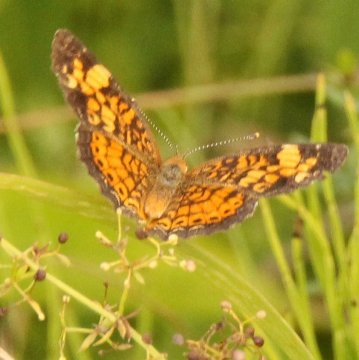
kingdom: Animalia
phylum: Arthropoda
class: Insecta
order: Lepidoptera
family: Nymphalidae
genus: Phyciodes
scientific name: Phyciodes tharos
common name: Pearl Crescent
